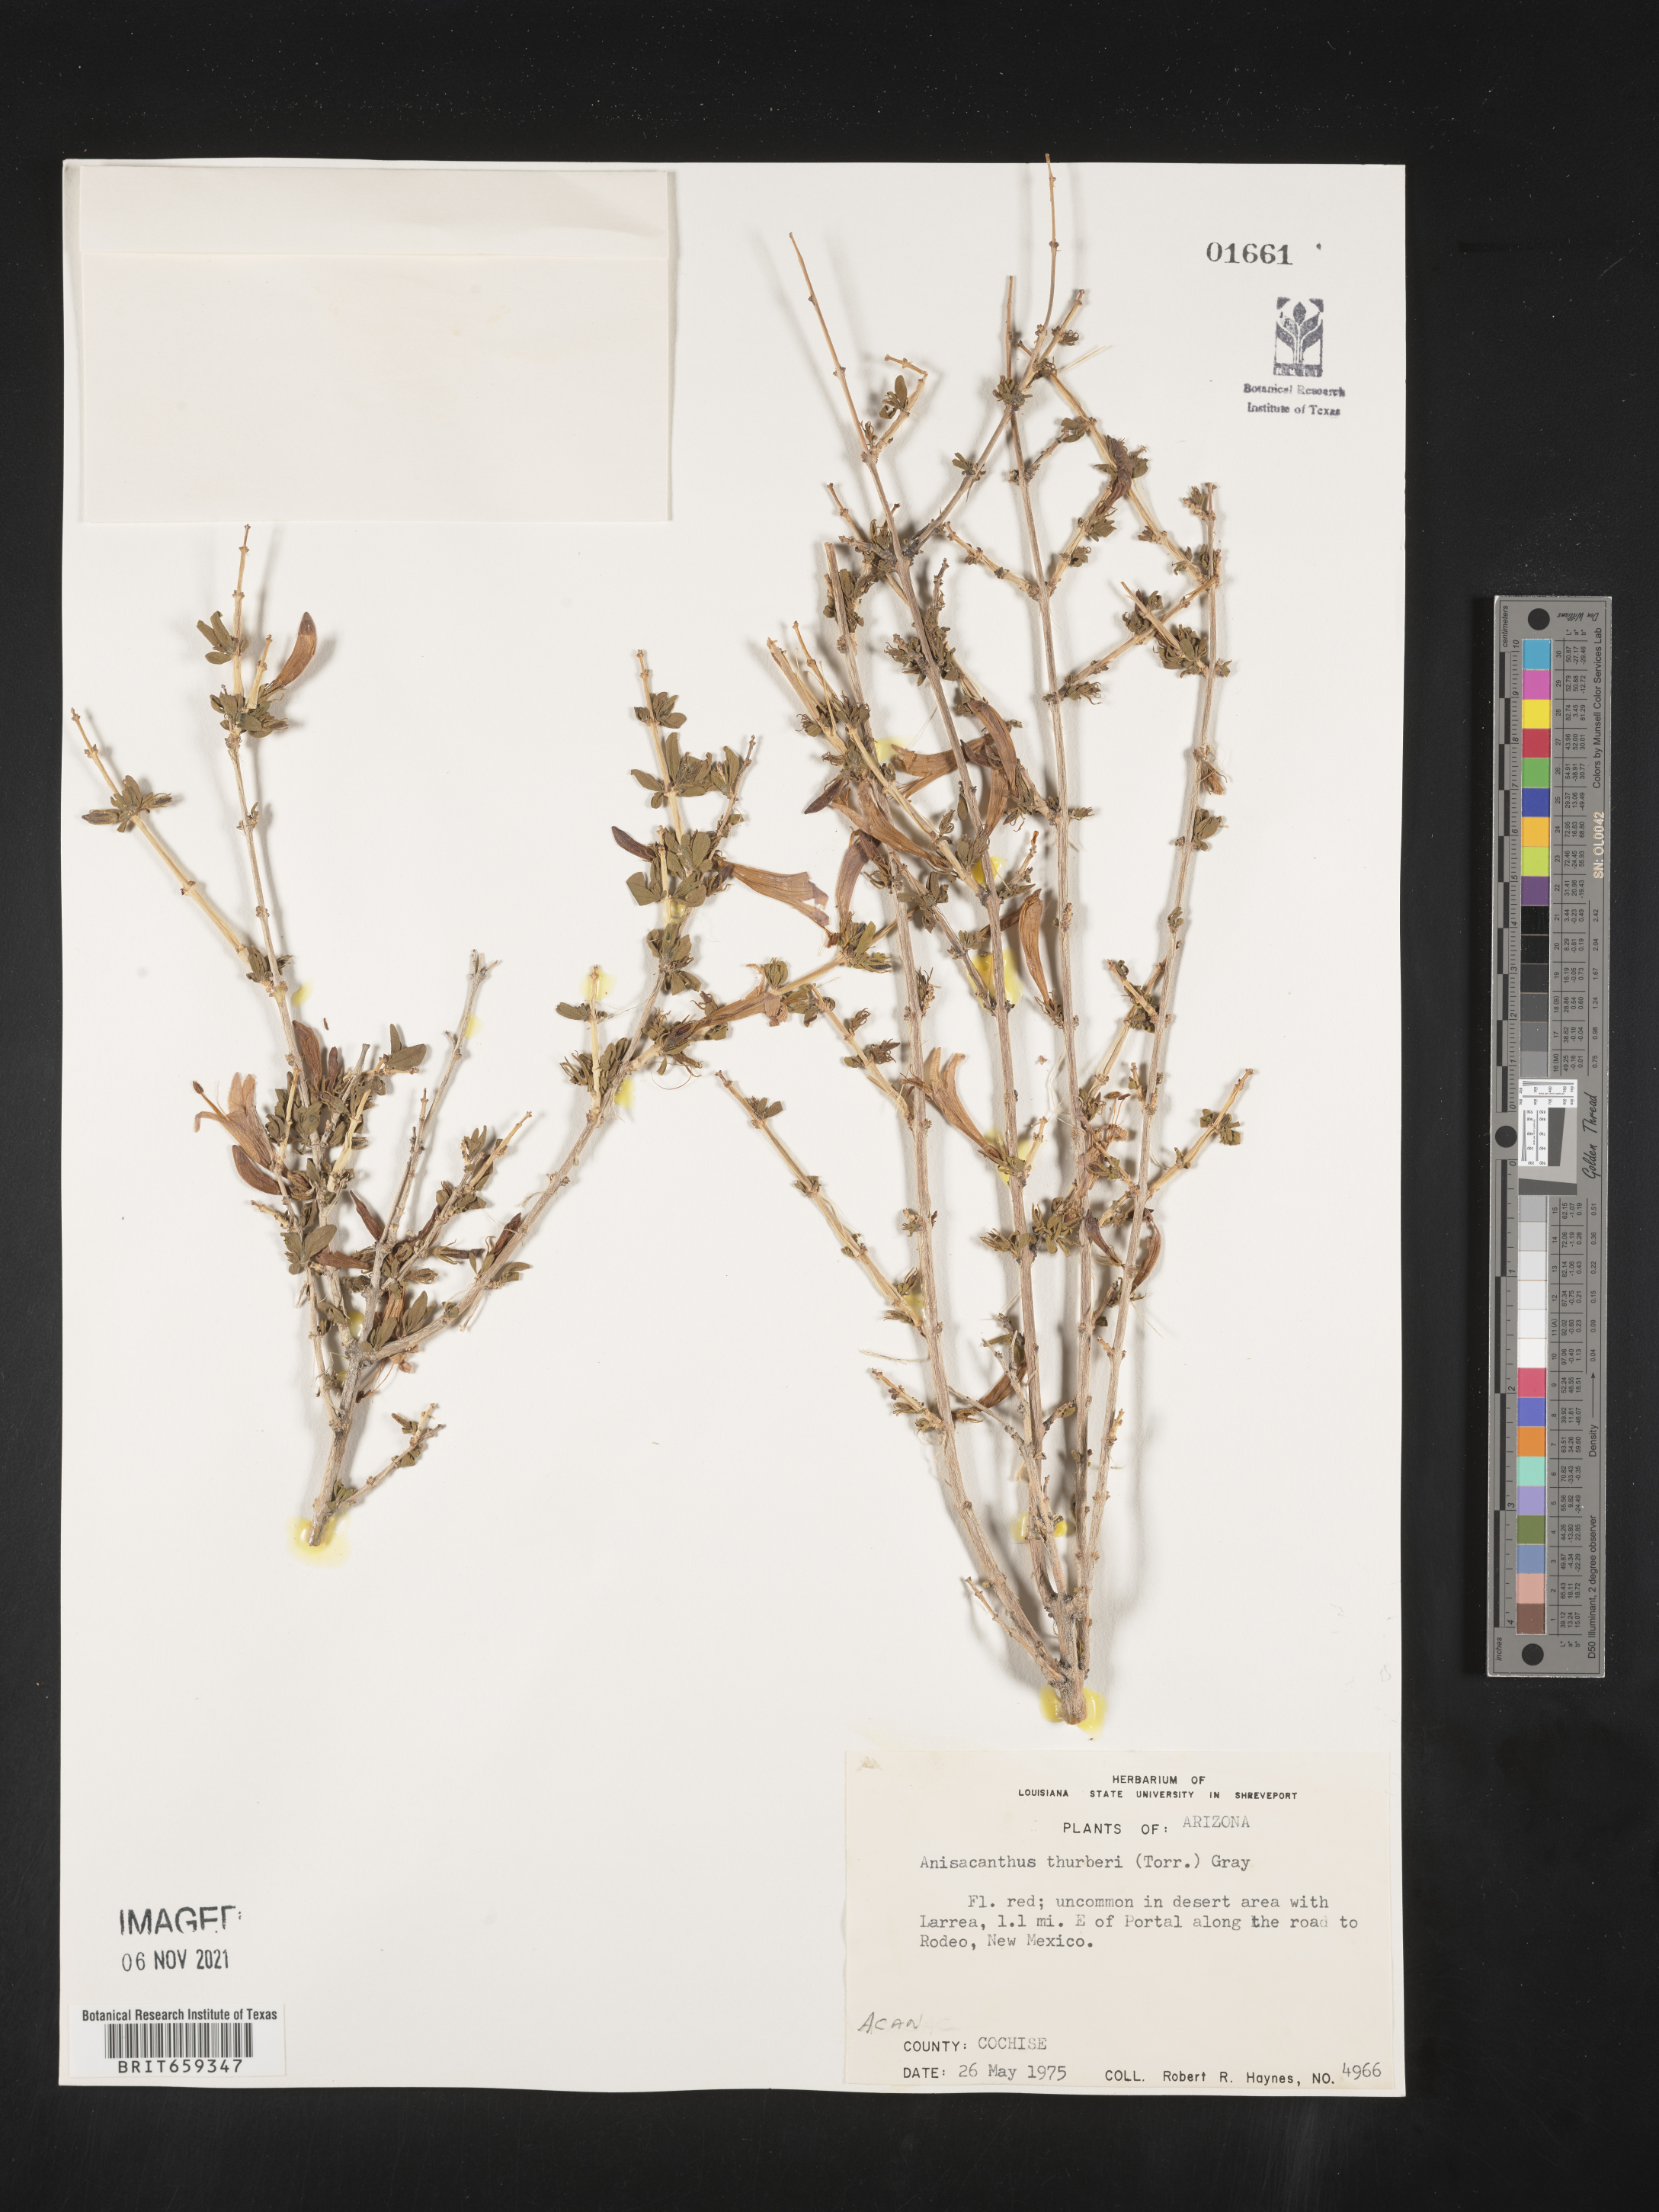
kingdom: Plantae
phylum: Tracheophyta
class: Magnoliopsida
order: Lamiales
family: Acanthaceae
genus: Anisacanthus
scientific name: Anisacanthus
